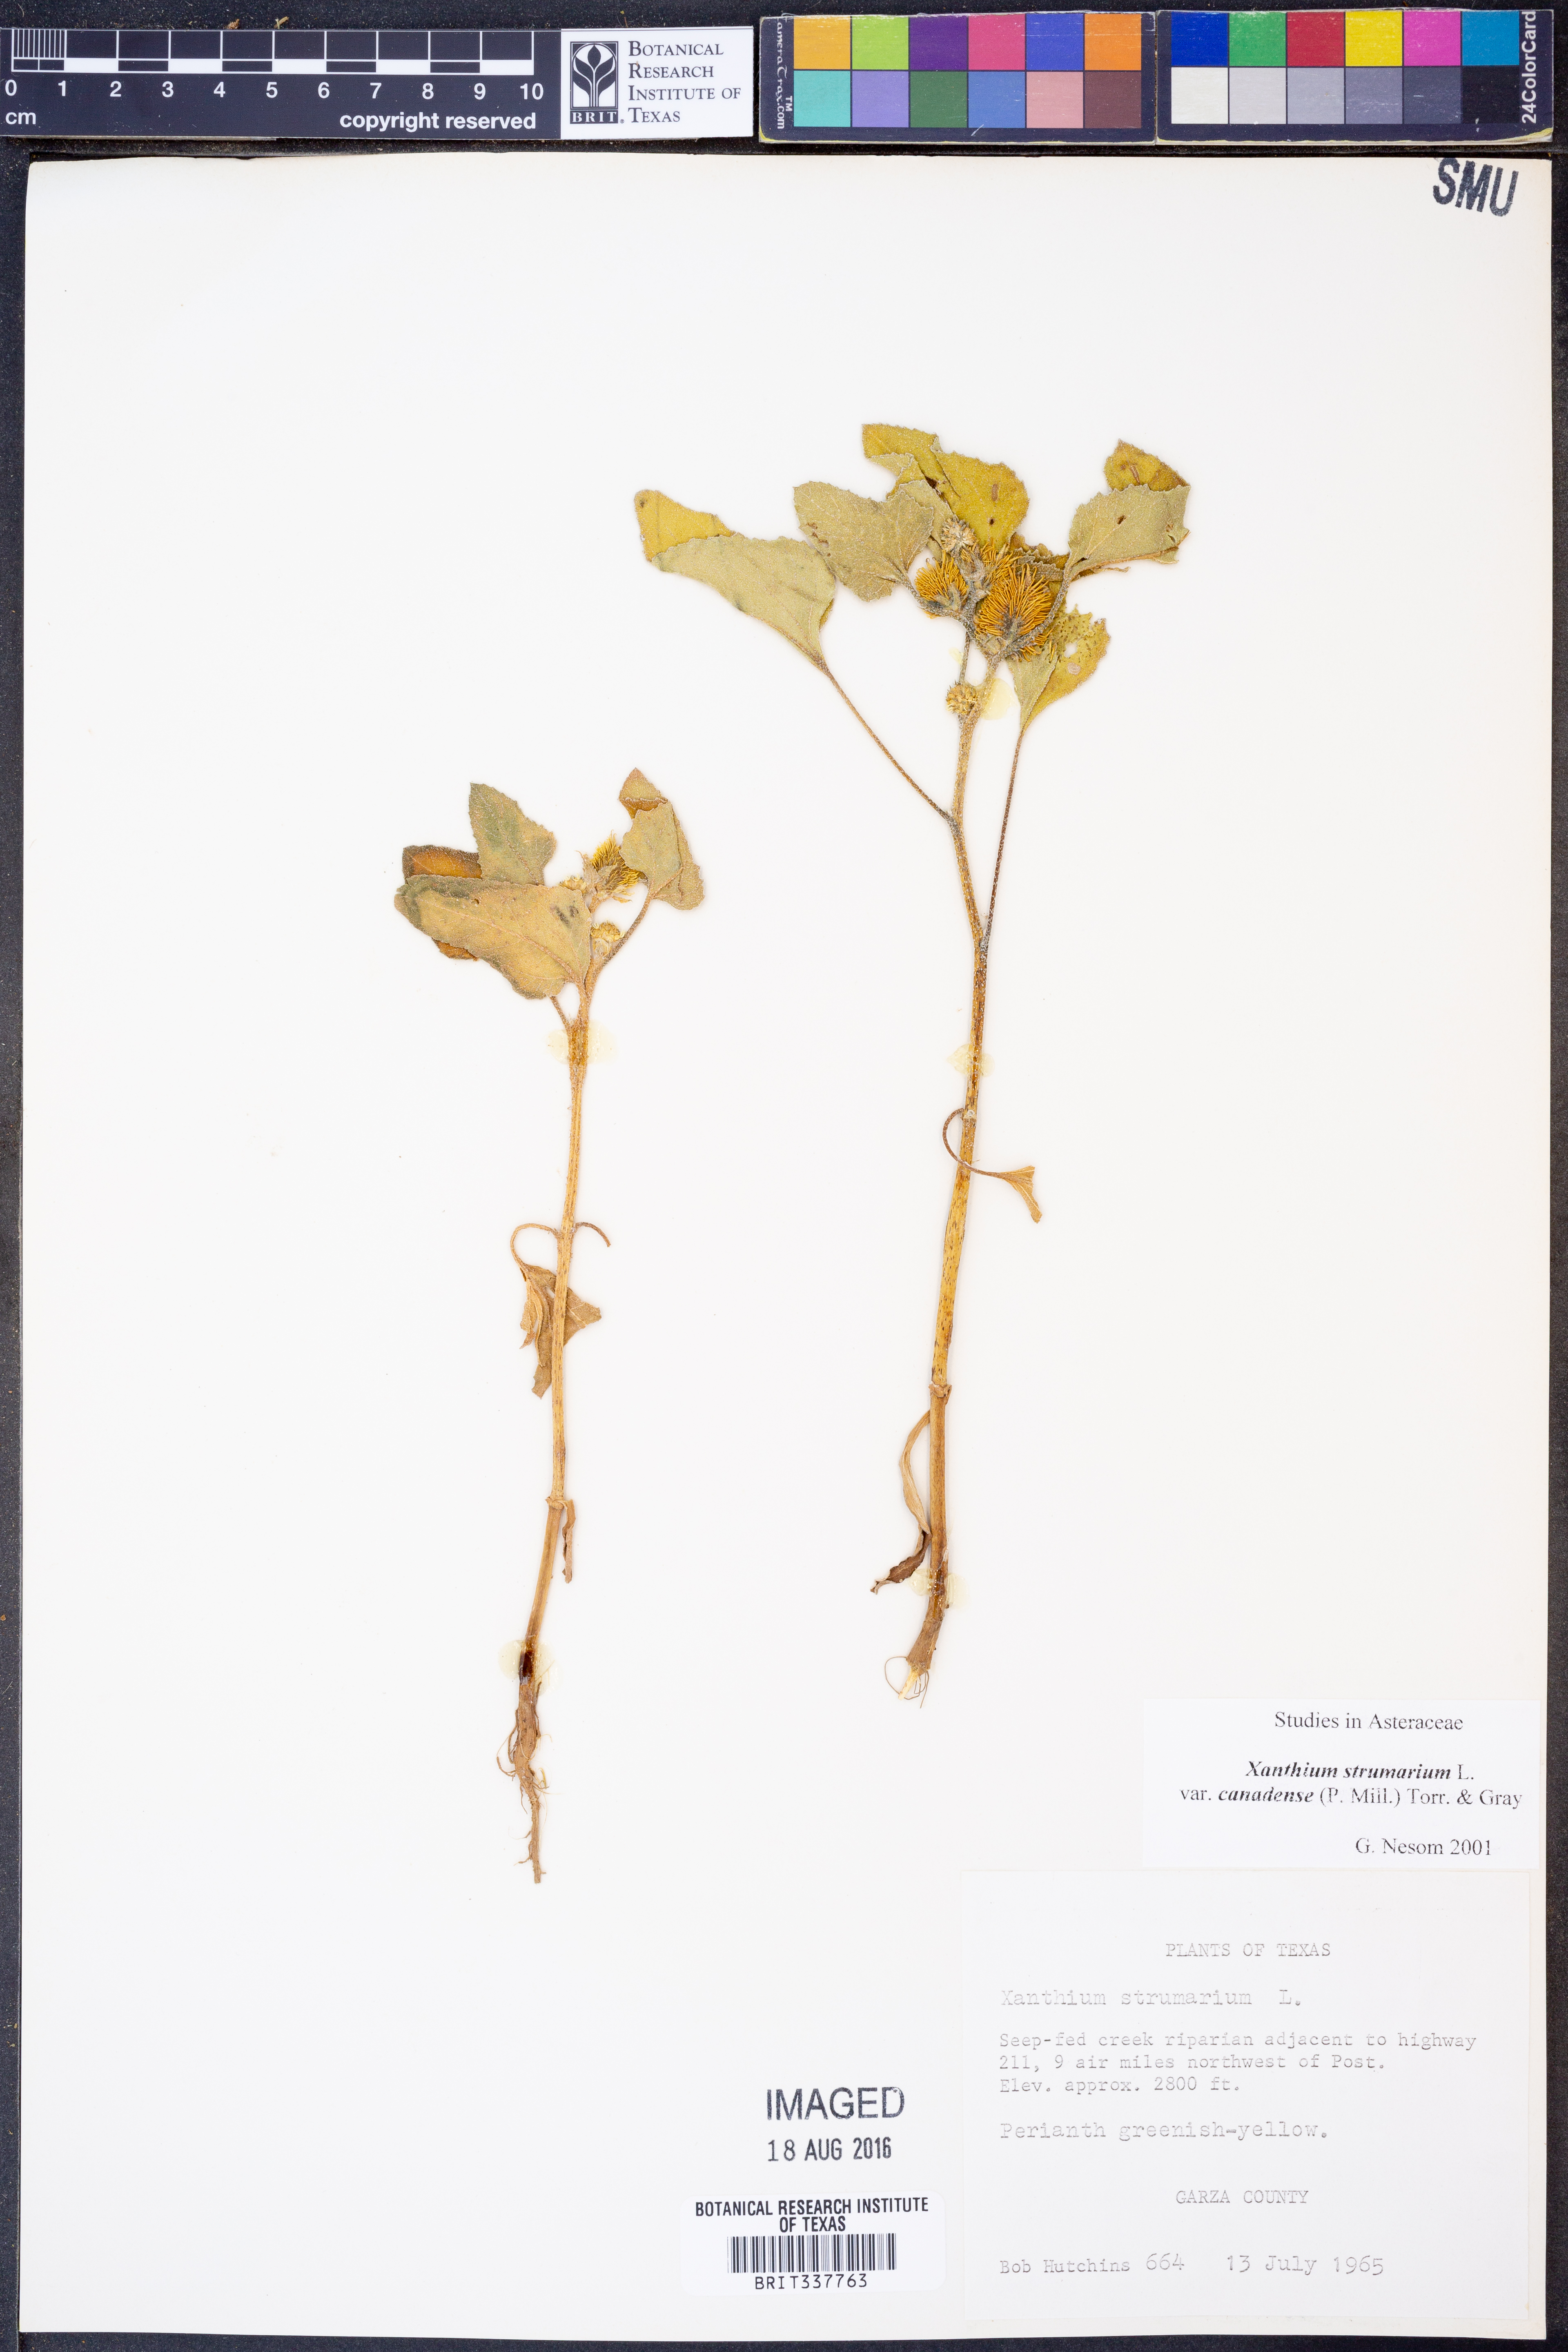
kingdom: Plantae
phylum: Tracheophyta
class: Magnoliopsida
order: Asterales
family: Asteraceae
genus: Xanthium
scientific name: Xanthium orientale
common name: Californian burr
